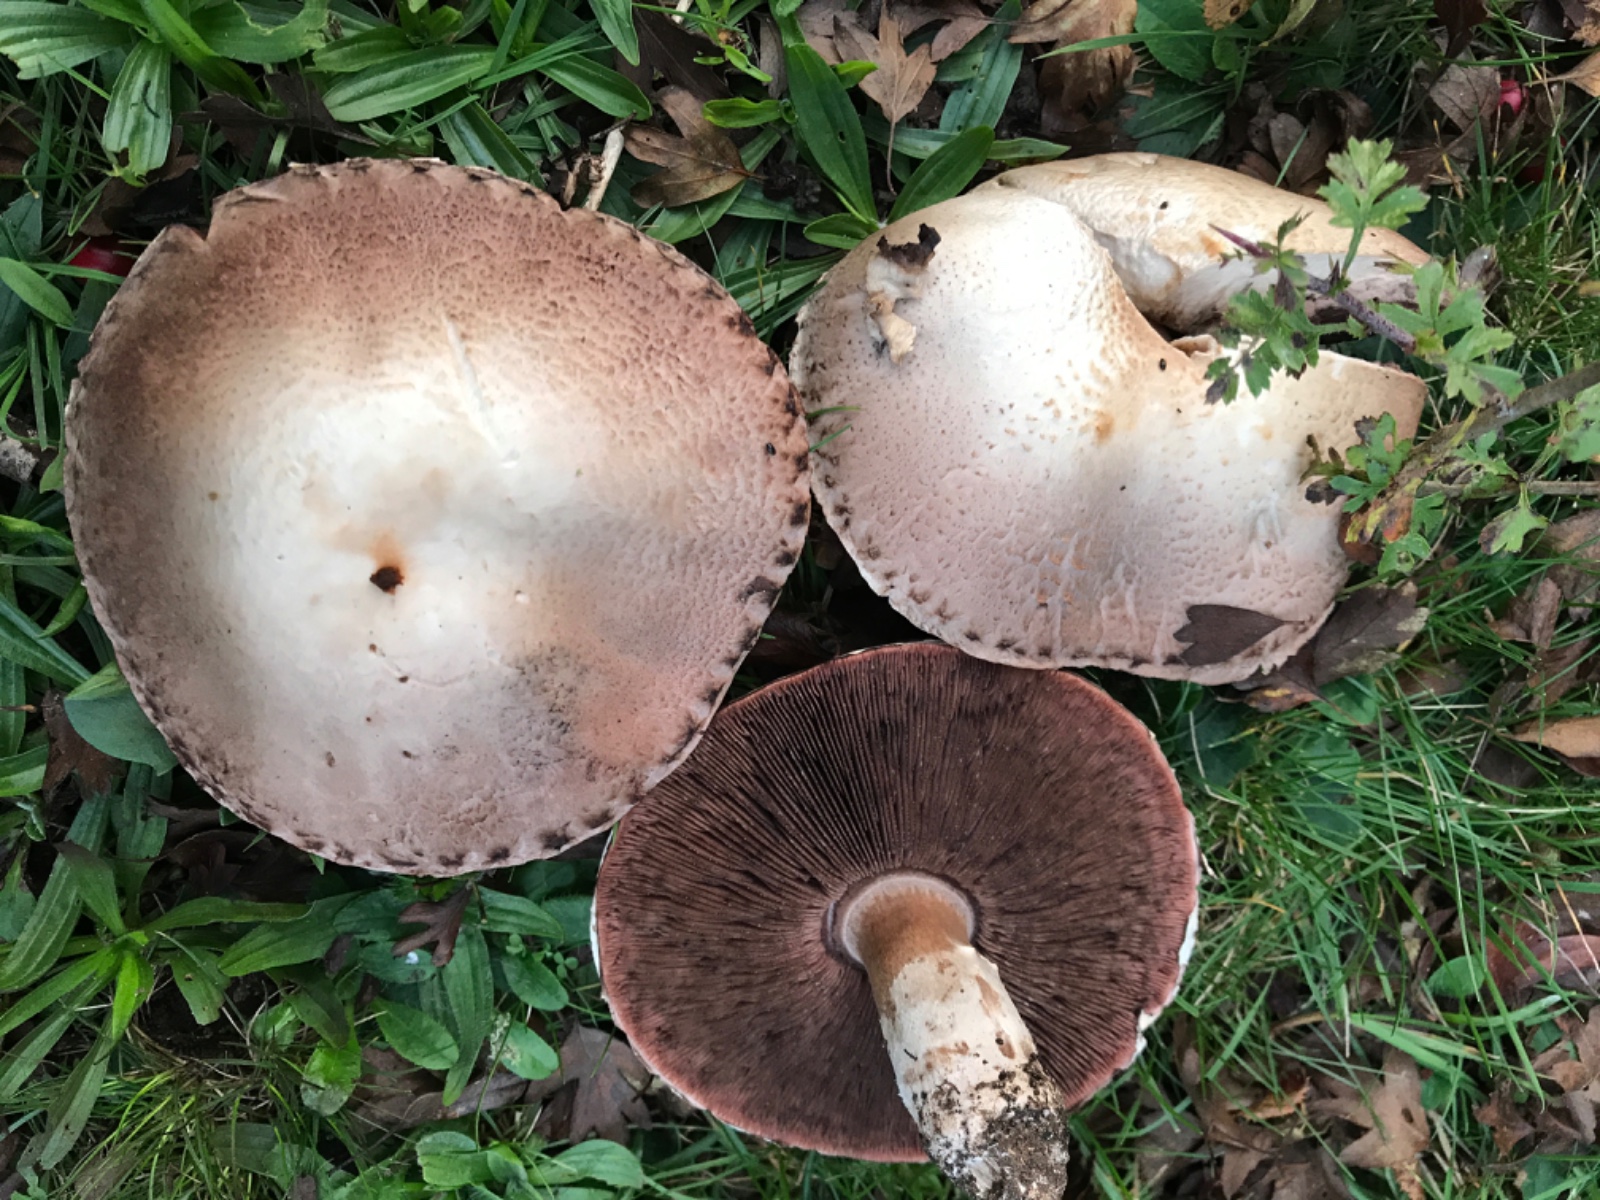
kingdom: Fungi
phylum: Basidiomycota
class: Agaricomycetes
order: Agaricales
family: Agaricaceae
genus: Agaricus
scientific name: Agaricus
